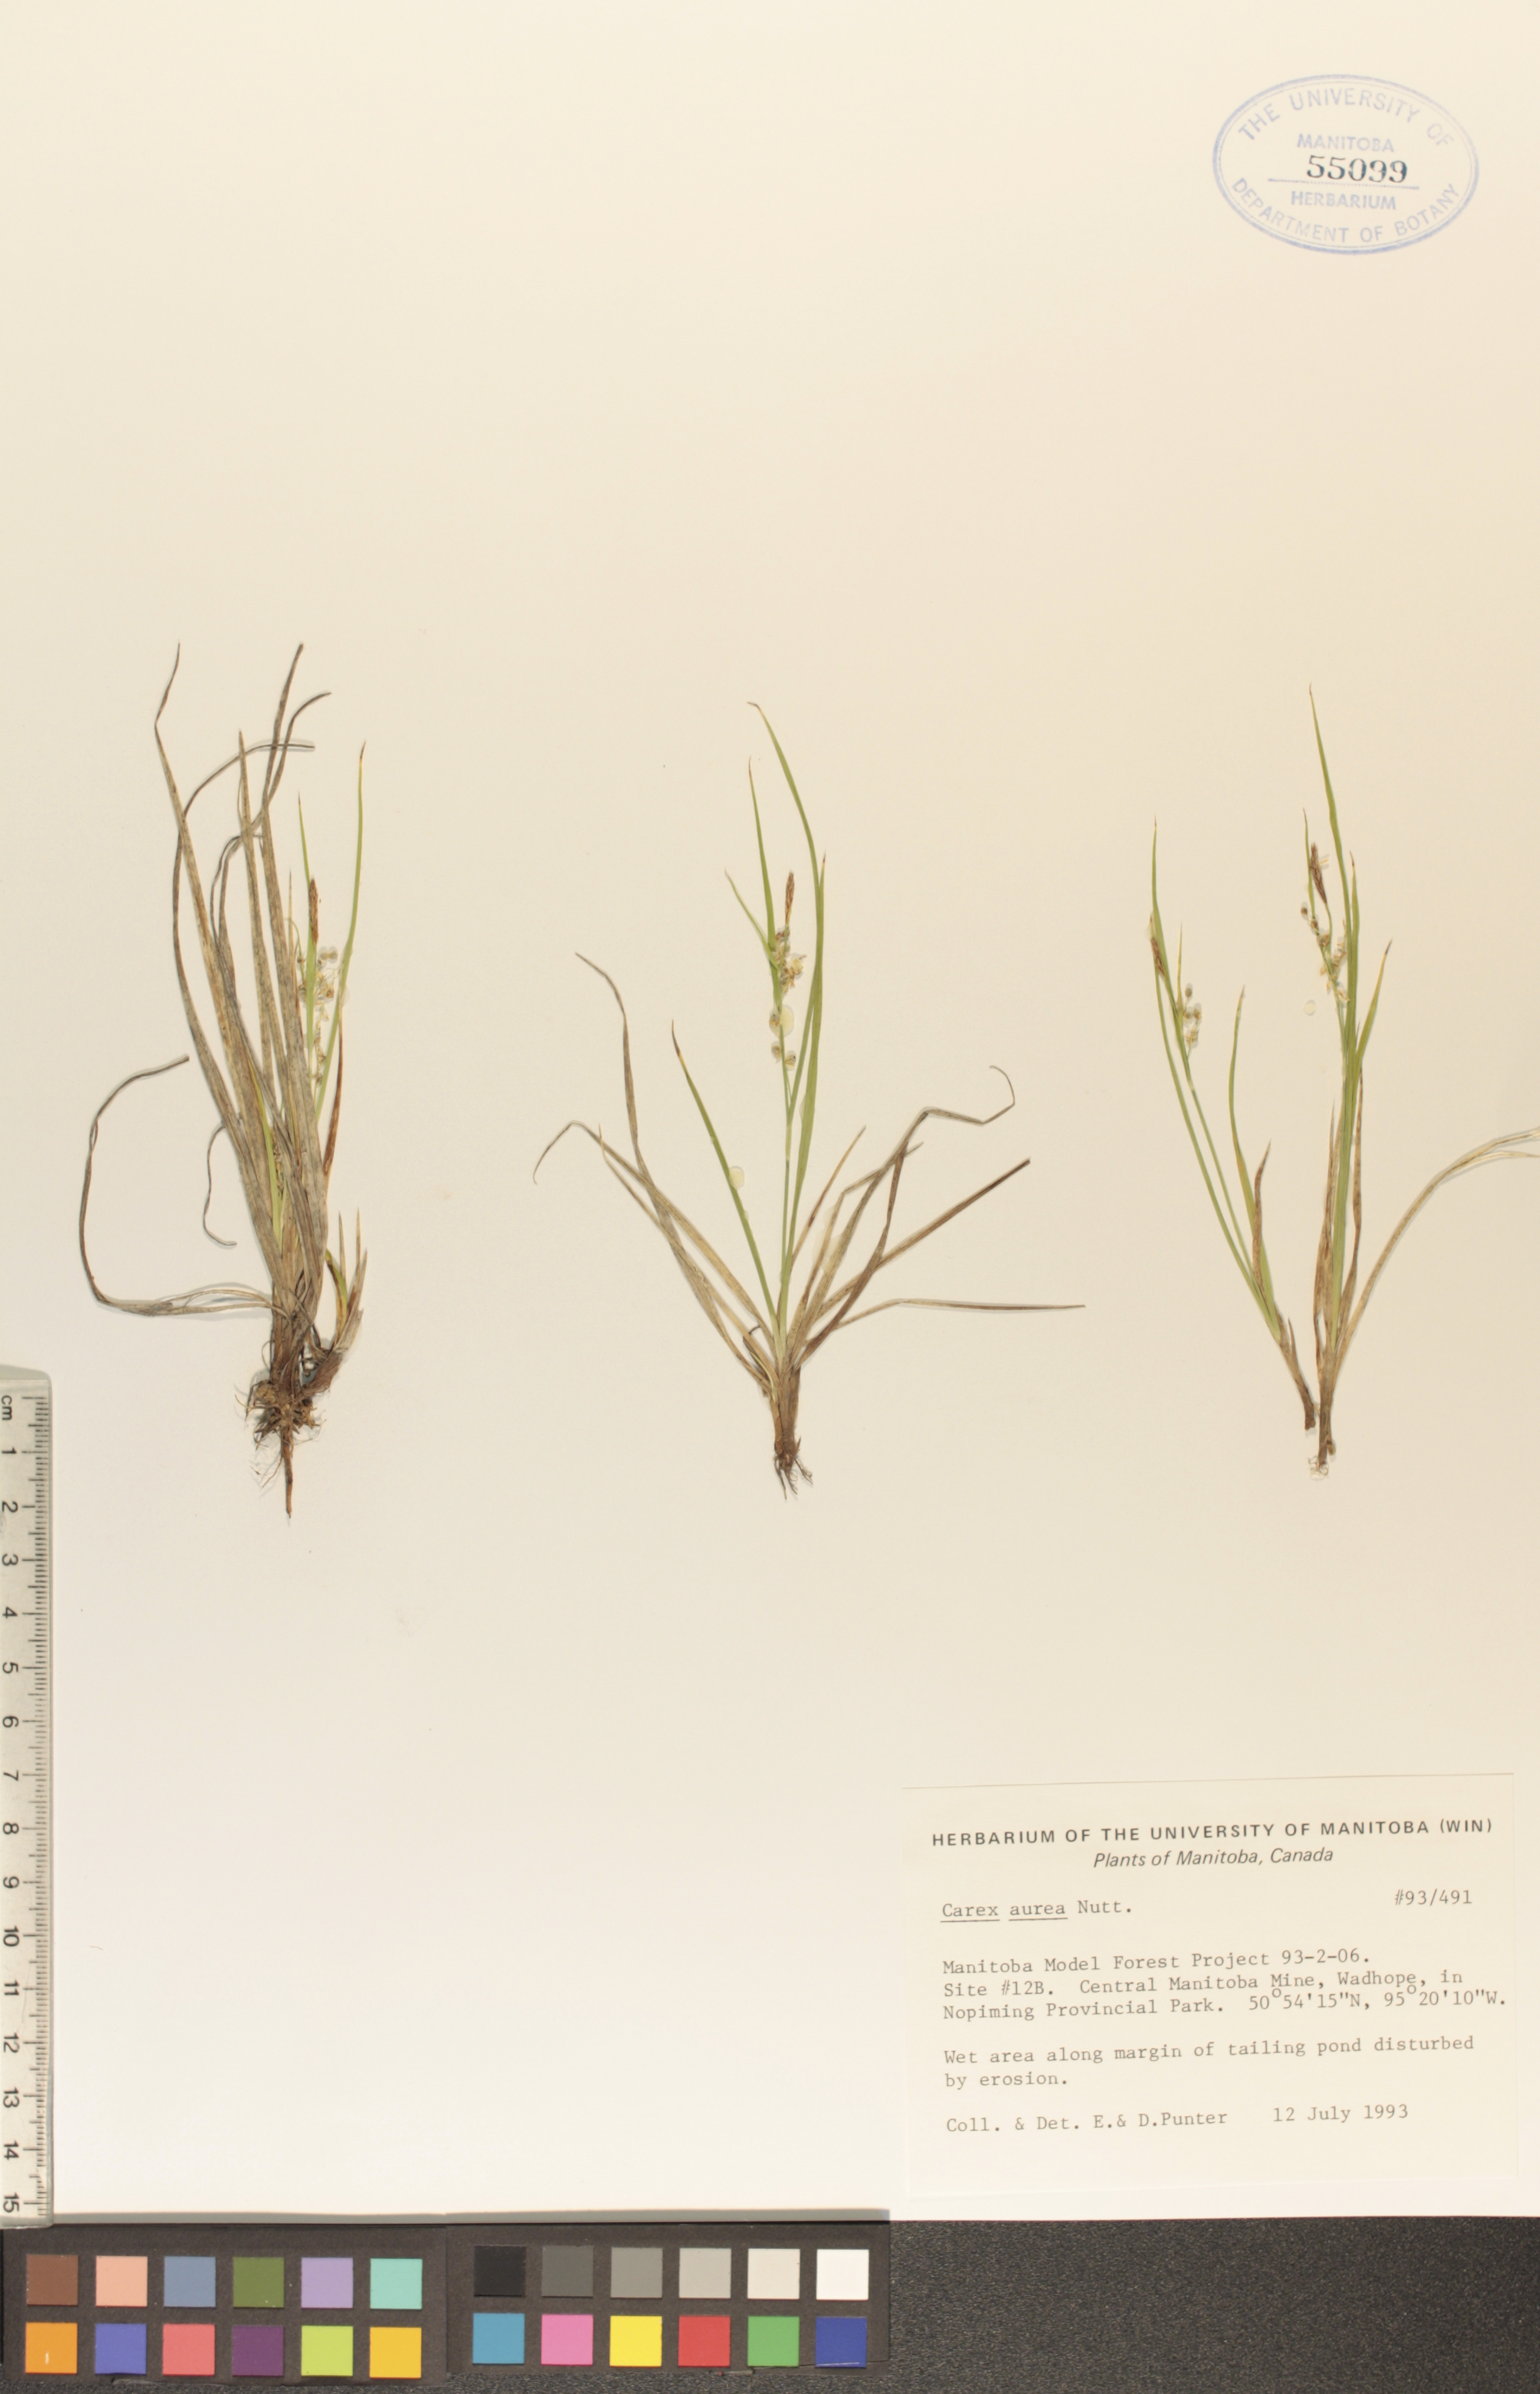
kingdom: Plantae
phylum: Tracheophyta
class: Liliopsida
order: Poales
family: Cyperaceae
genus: Carex
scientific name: Carex aurea
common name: Golden sedge
